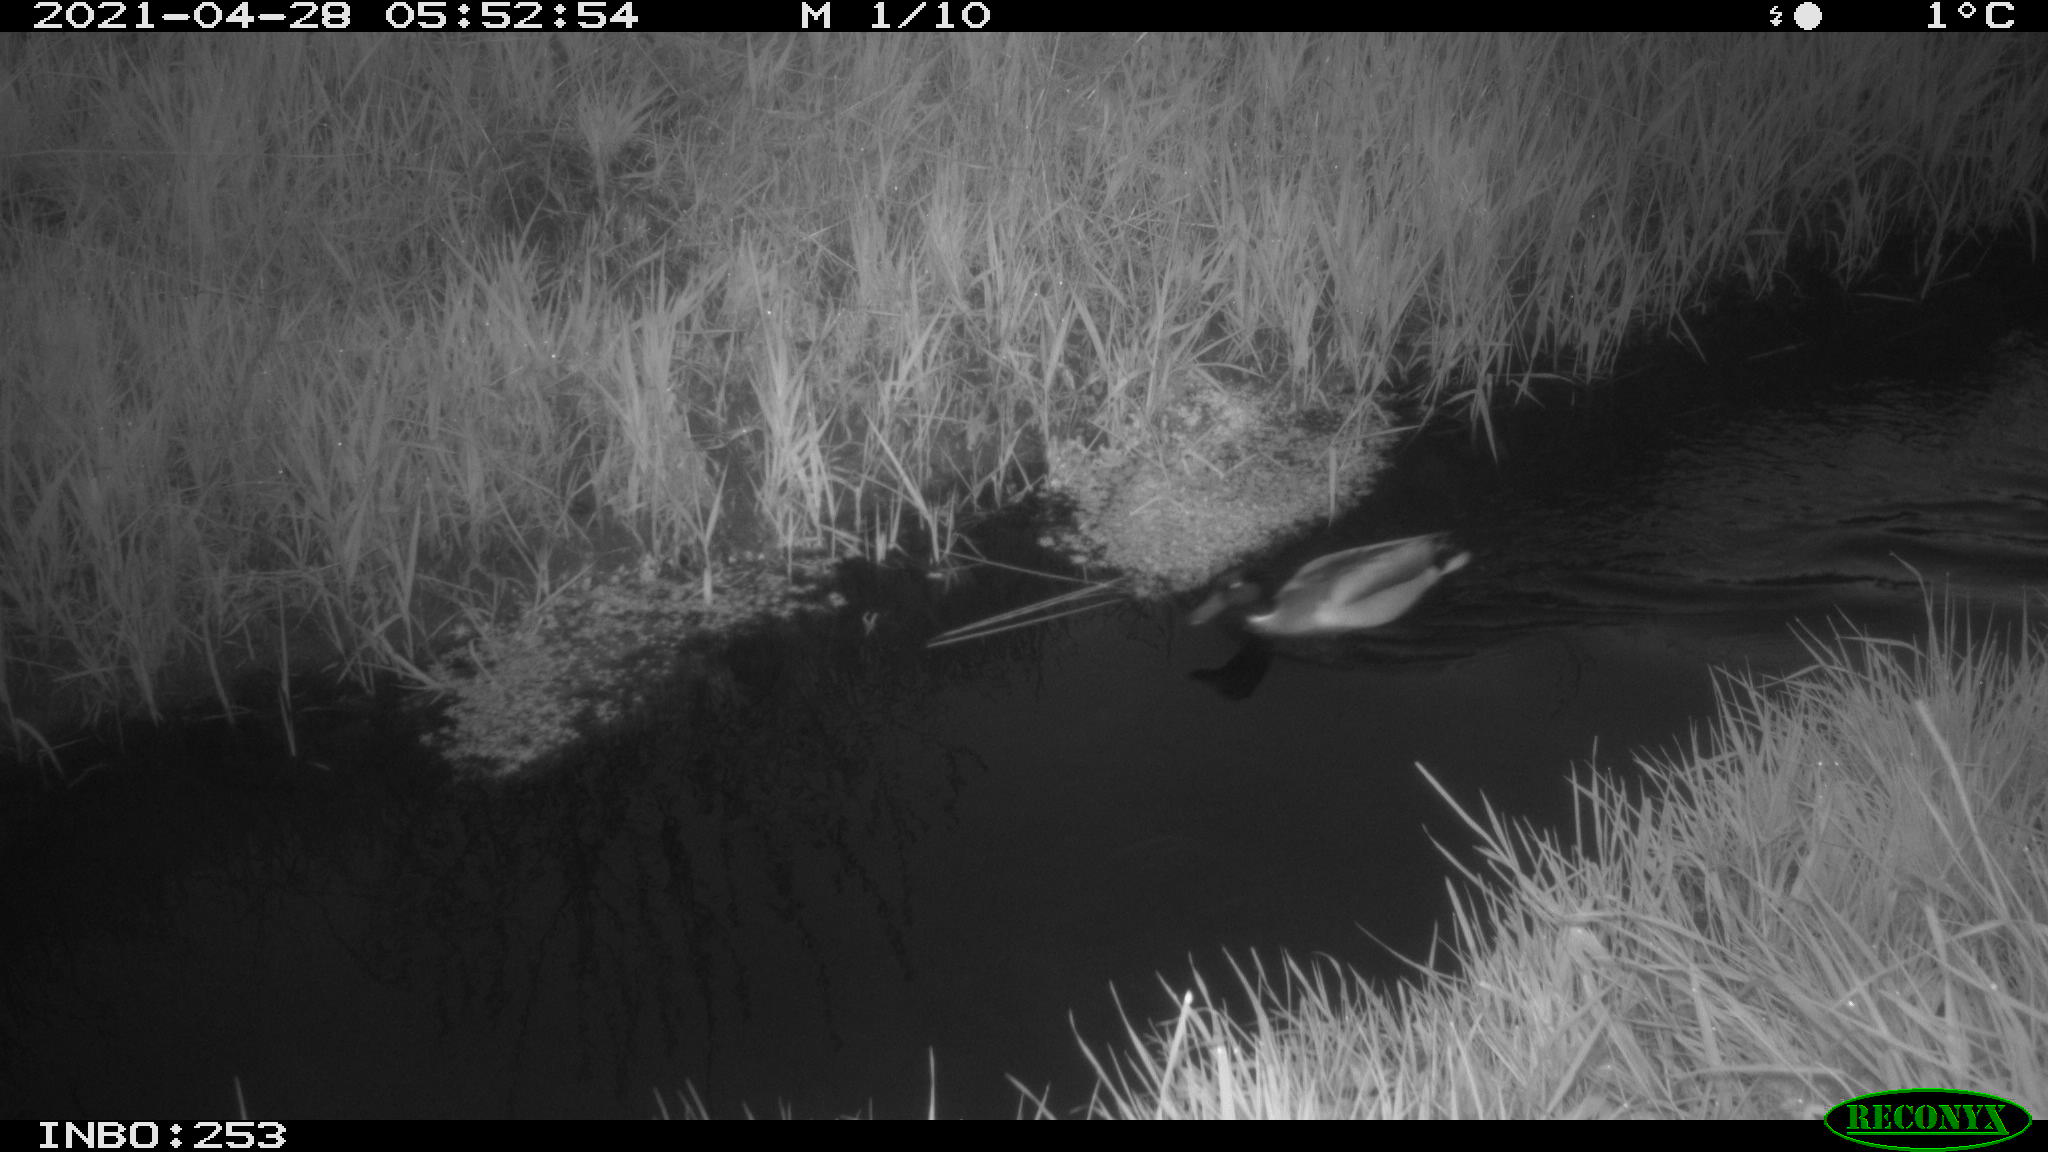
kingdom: Animalia
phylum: Chordata
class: Aves
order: Anseriformes
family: Anatidae
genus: Anas
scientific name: Anas platyrhynchos
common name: Mallard
